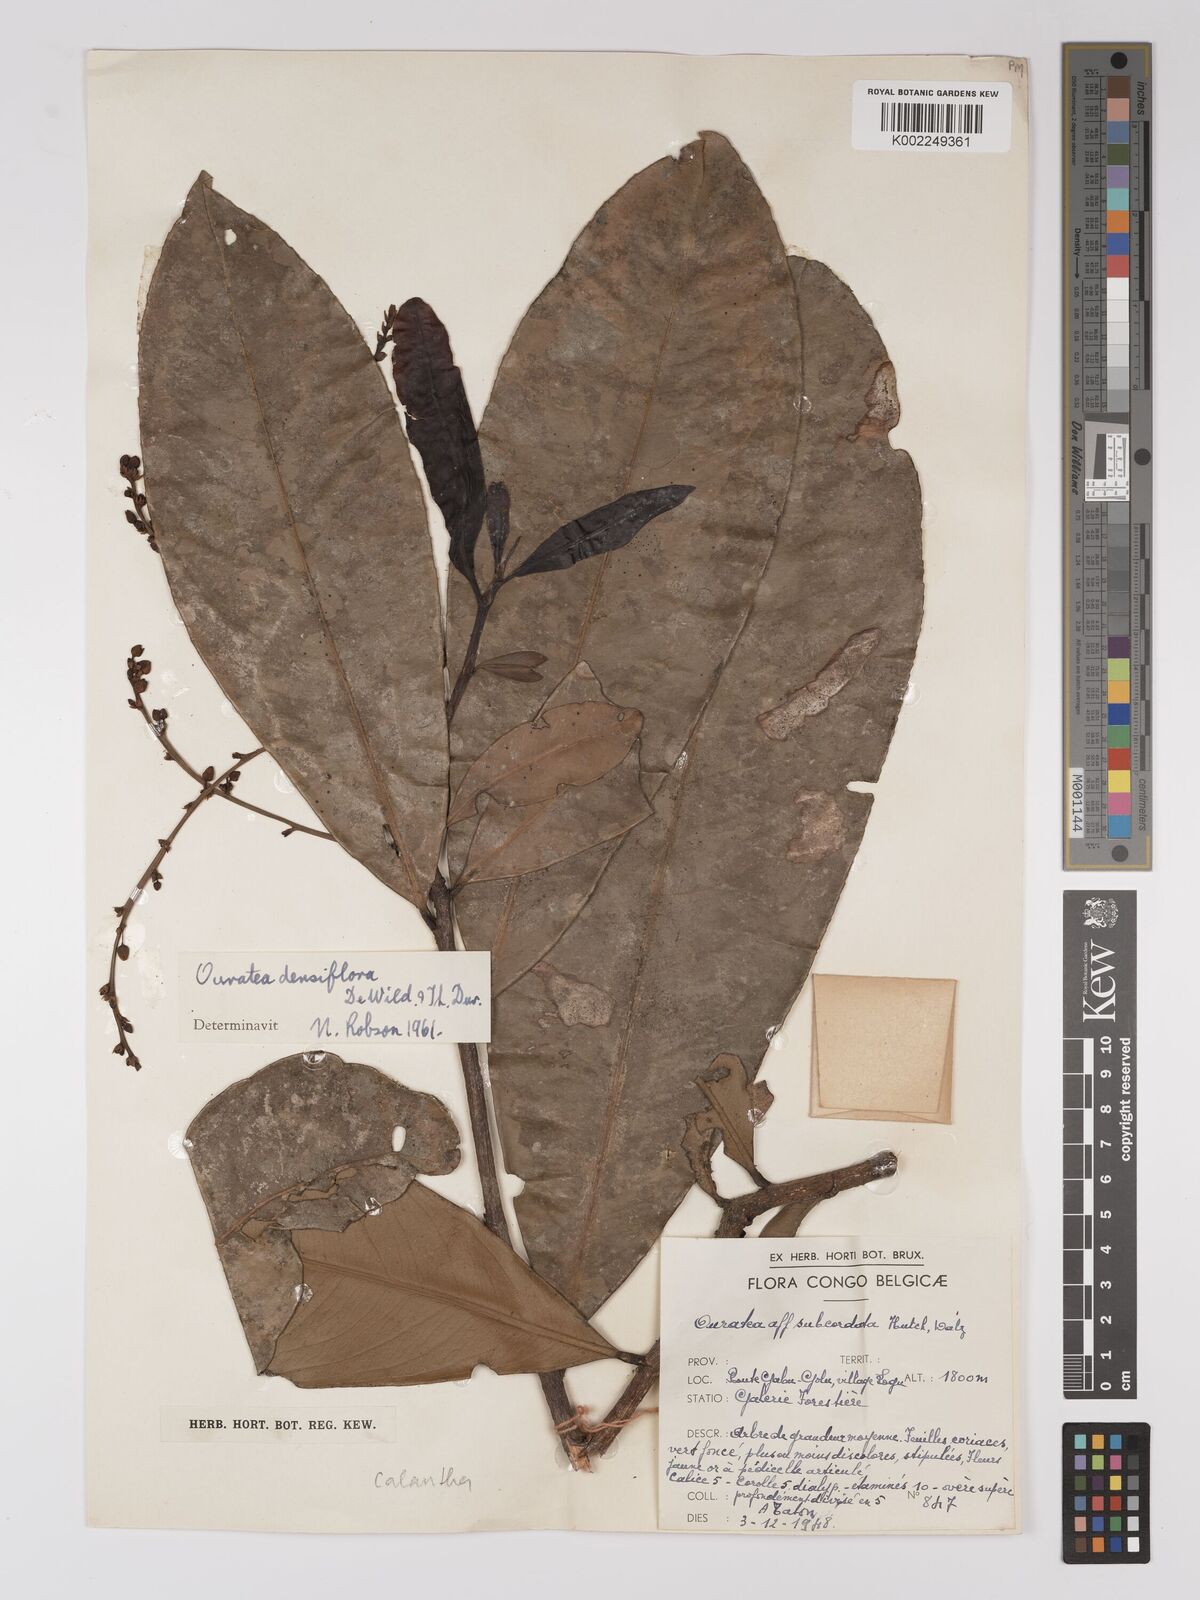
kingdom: Plantae
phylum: Tracheophyta
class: Magnoliopsida
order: Malpighiales
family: Ochnaceae
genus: Gomphia
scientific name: Gomphia densiflora
